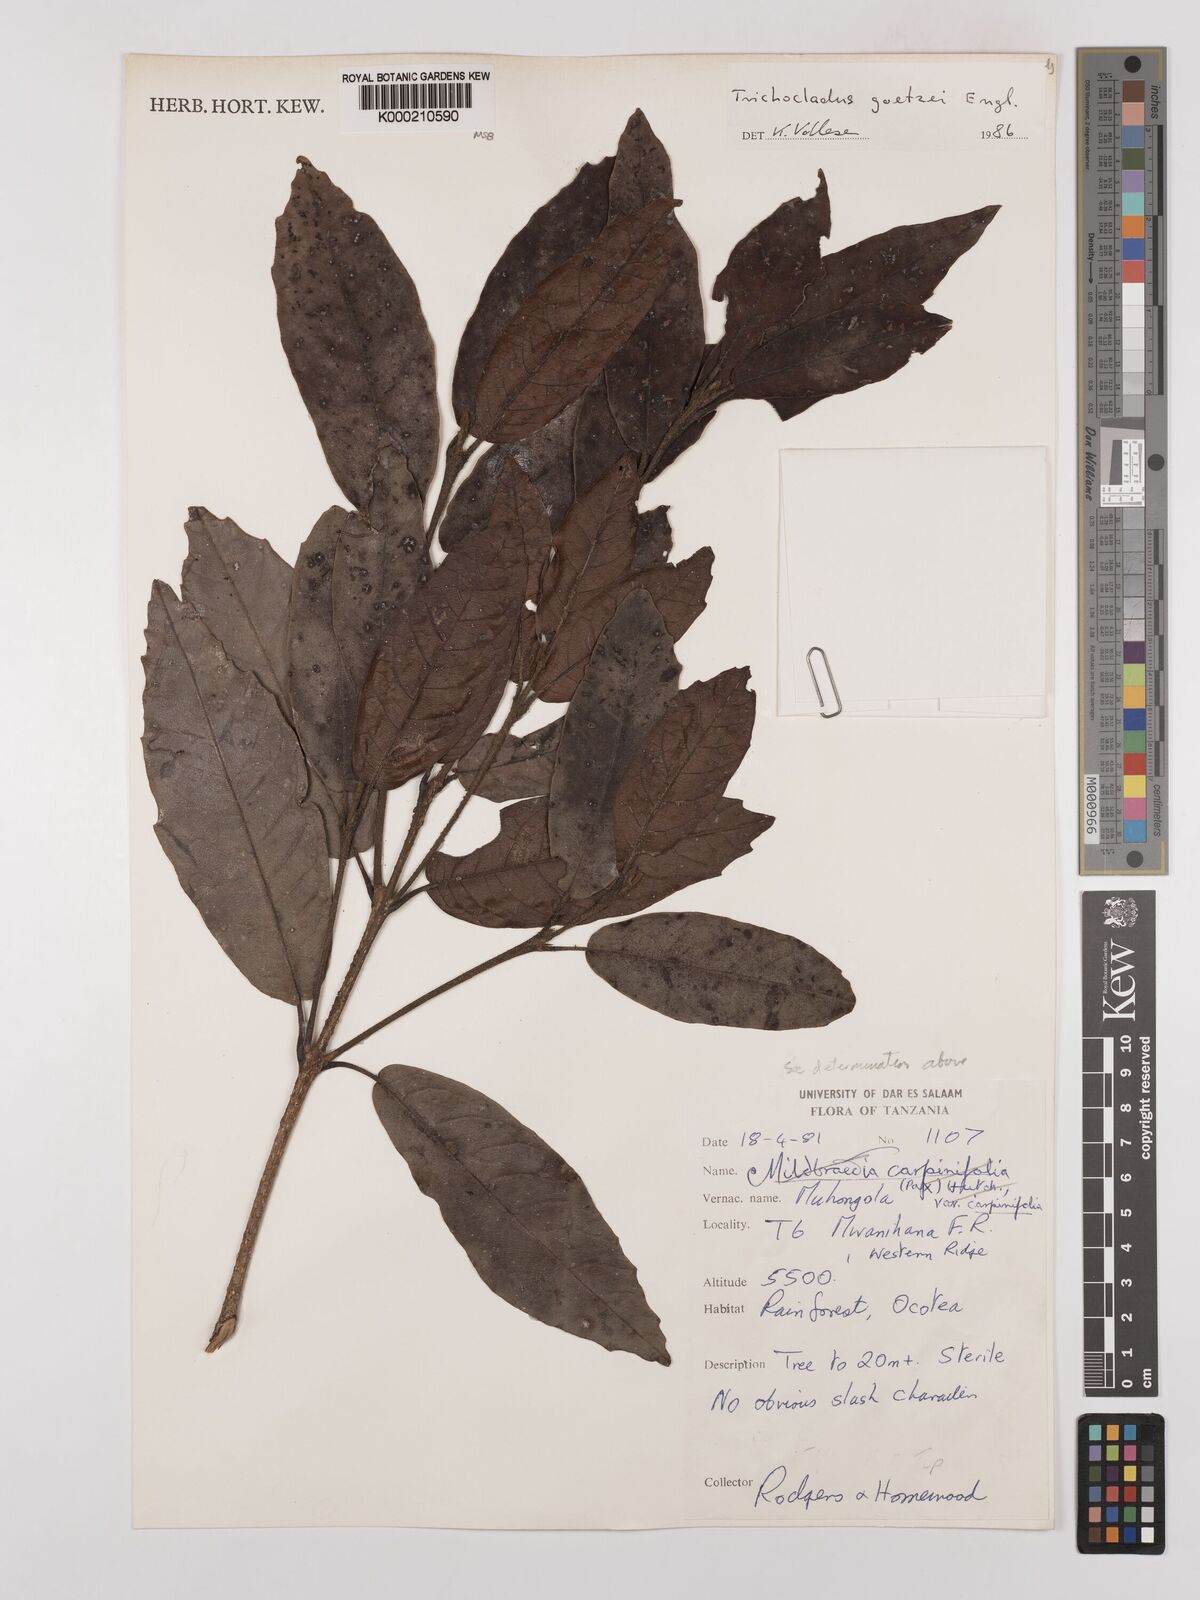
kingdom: Plantae
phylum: Tracheophyta
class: Magnoliopsida
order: Saxifragales
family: Hamamelidaceae
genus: Trichocladus
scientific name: Trichocladus goetzei
